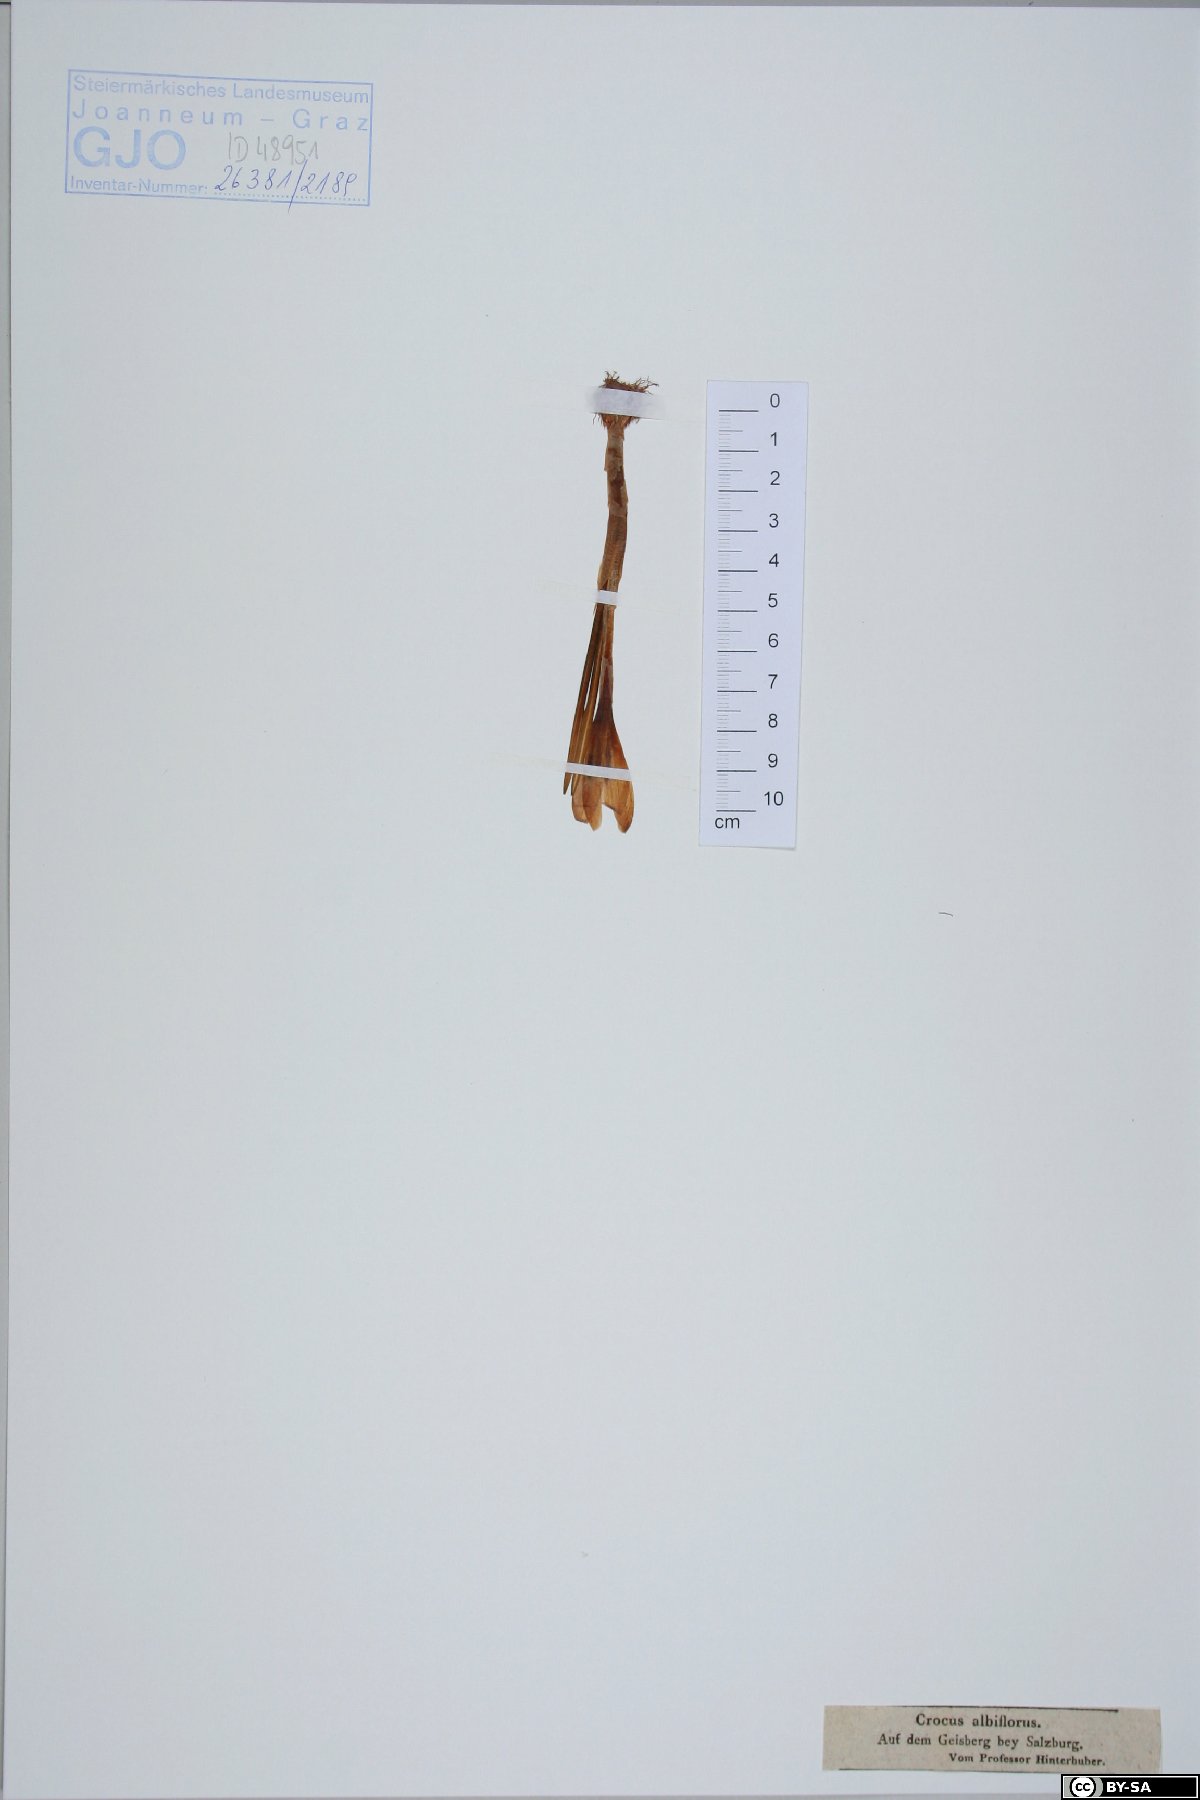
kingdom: Plantae
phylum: Tracheophyta
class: Liliopsida
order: Asparagales
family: Iridaceae
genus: Crocus
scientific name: Crocus vernus
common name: Spring crocus
